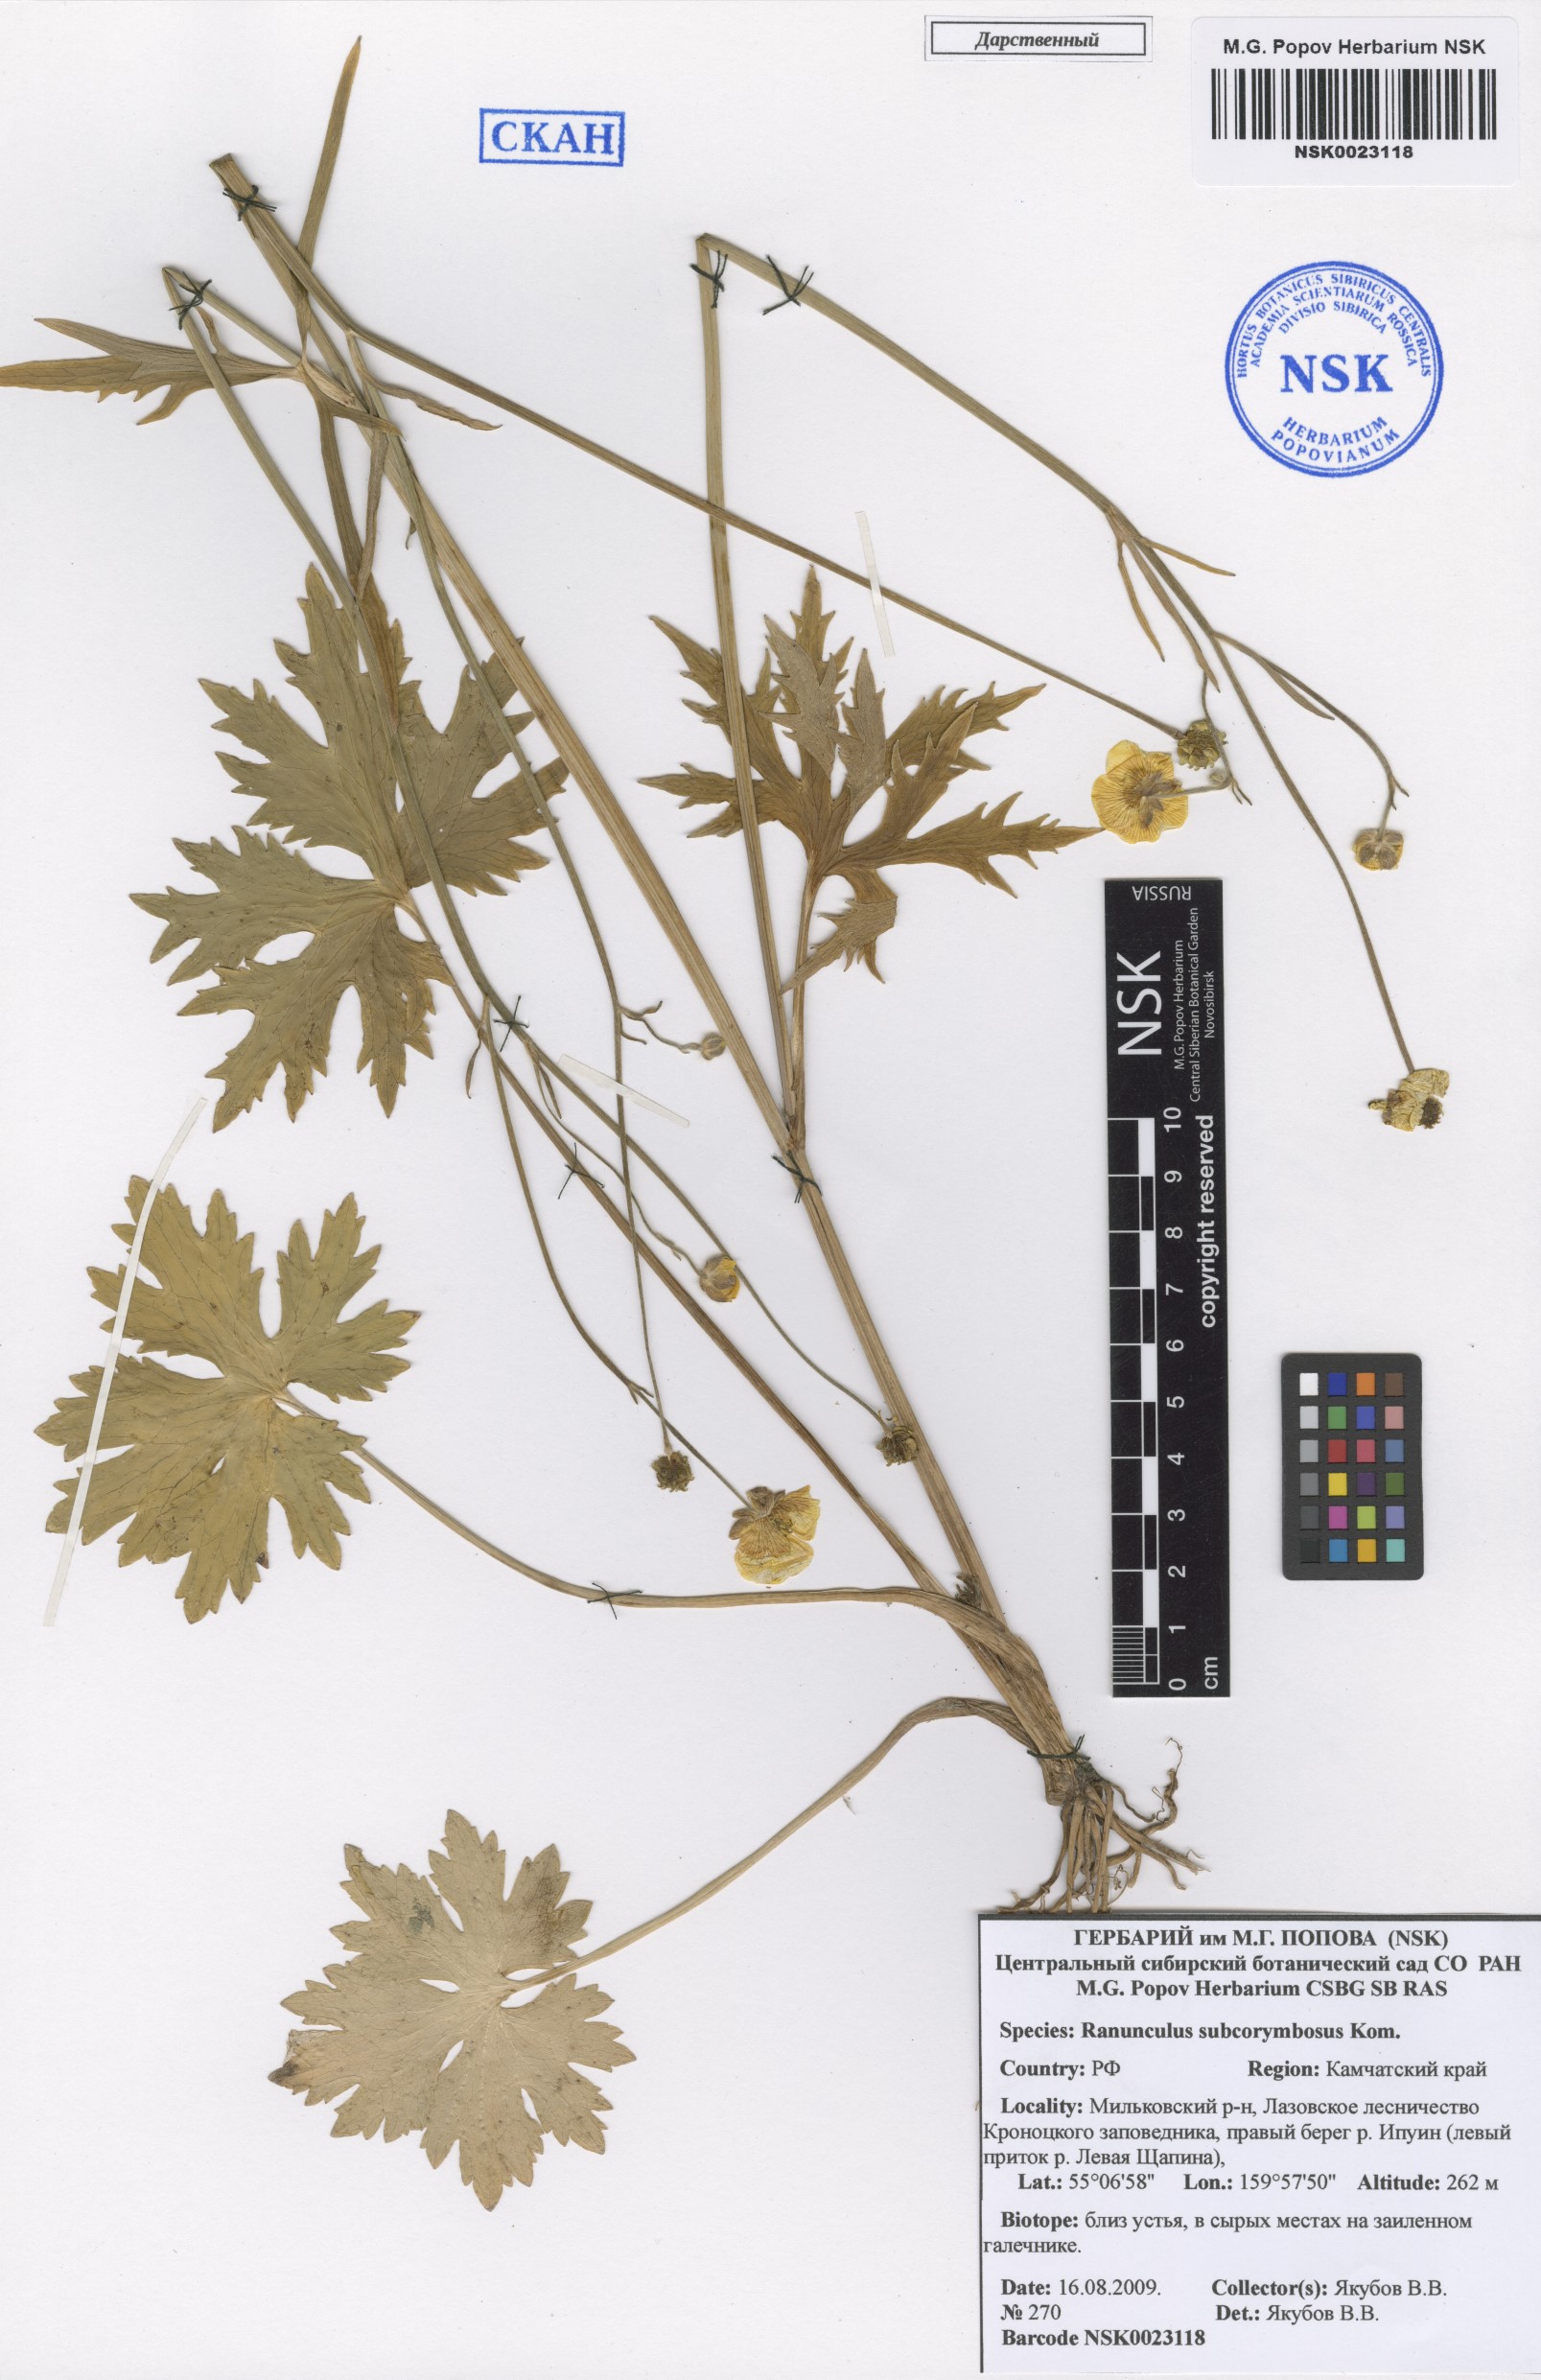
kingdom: Plantae
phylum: Tracheophyta
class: Magnoliopsida
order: Ranunculales
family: Ranunculaceae
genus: Ranunculus
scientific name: Ranunculus subcorymbosus
